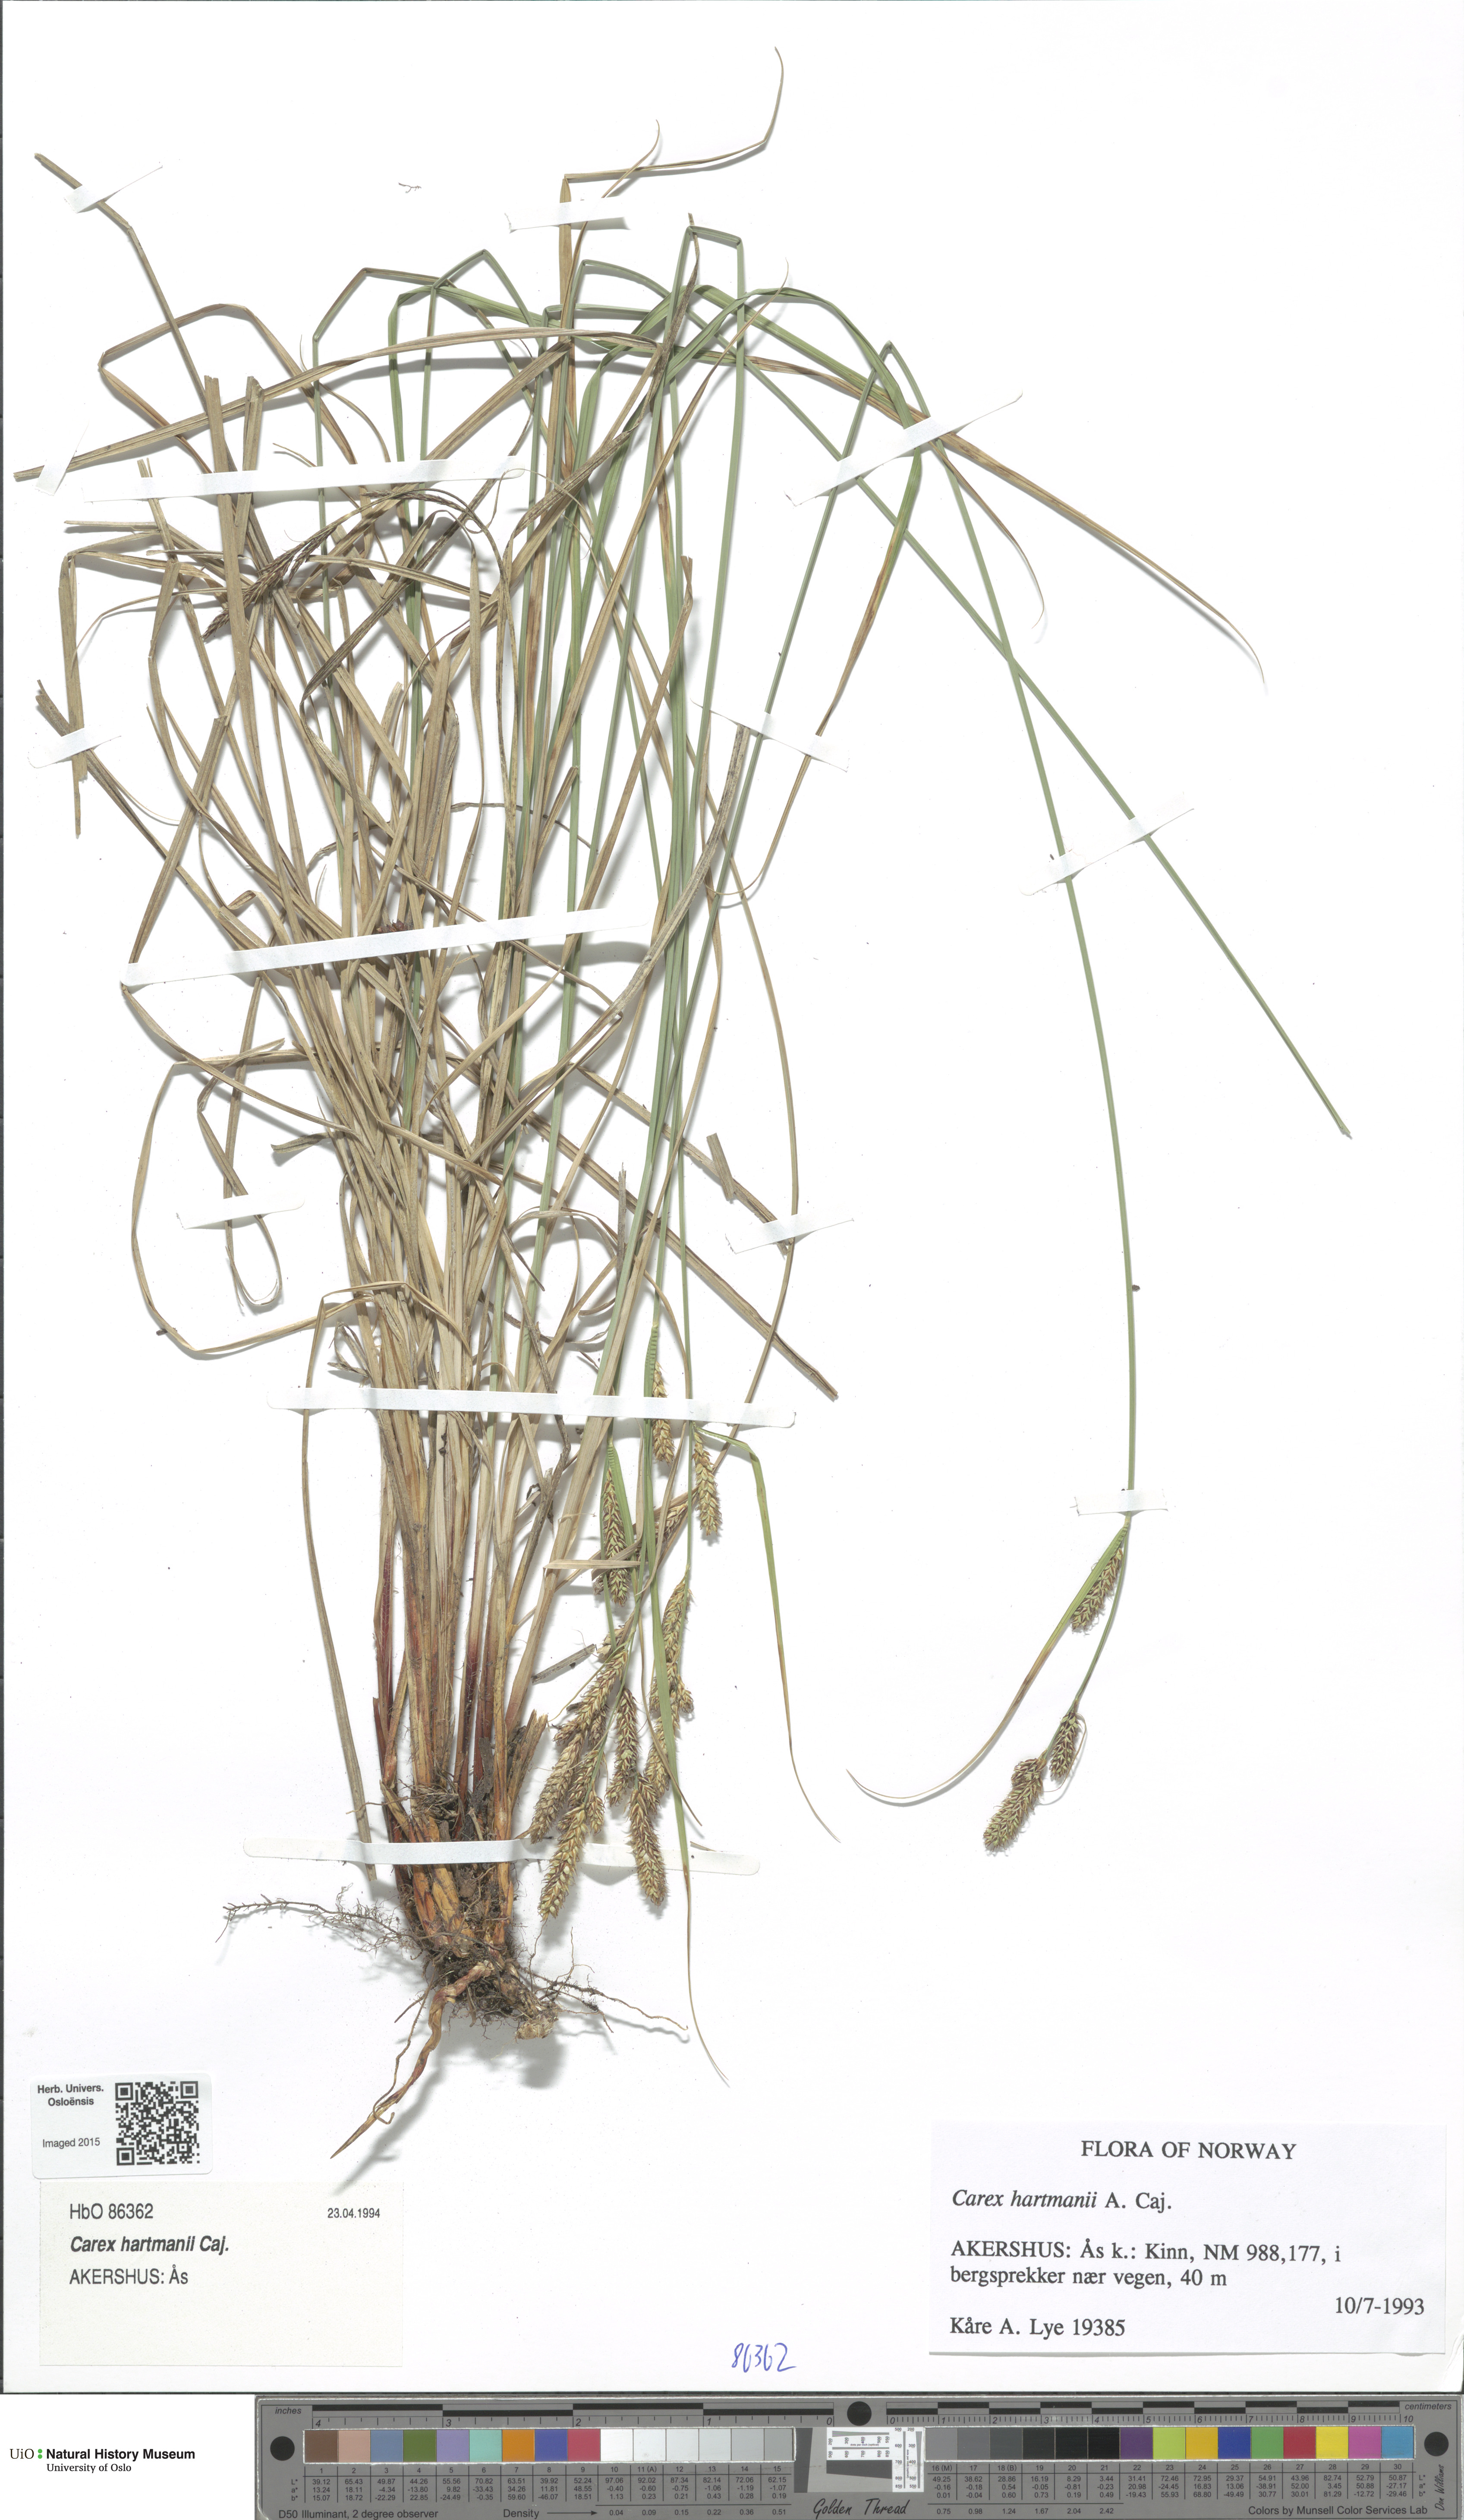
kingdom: Plantae
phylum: Tracheophyta
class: Liliopsida
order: Poales
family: Cyperaceae
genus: Carex
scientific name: Carex hartmaniorum
